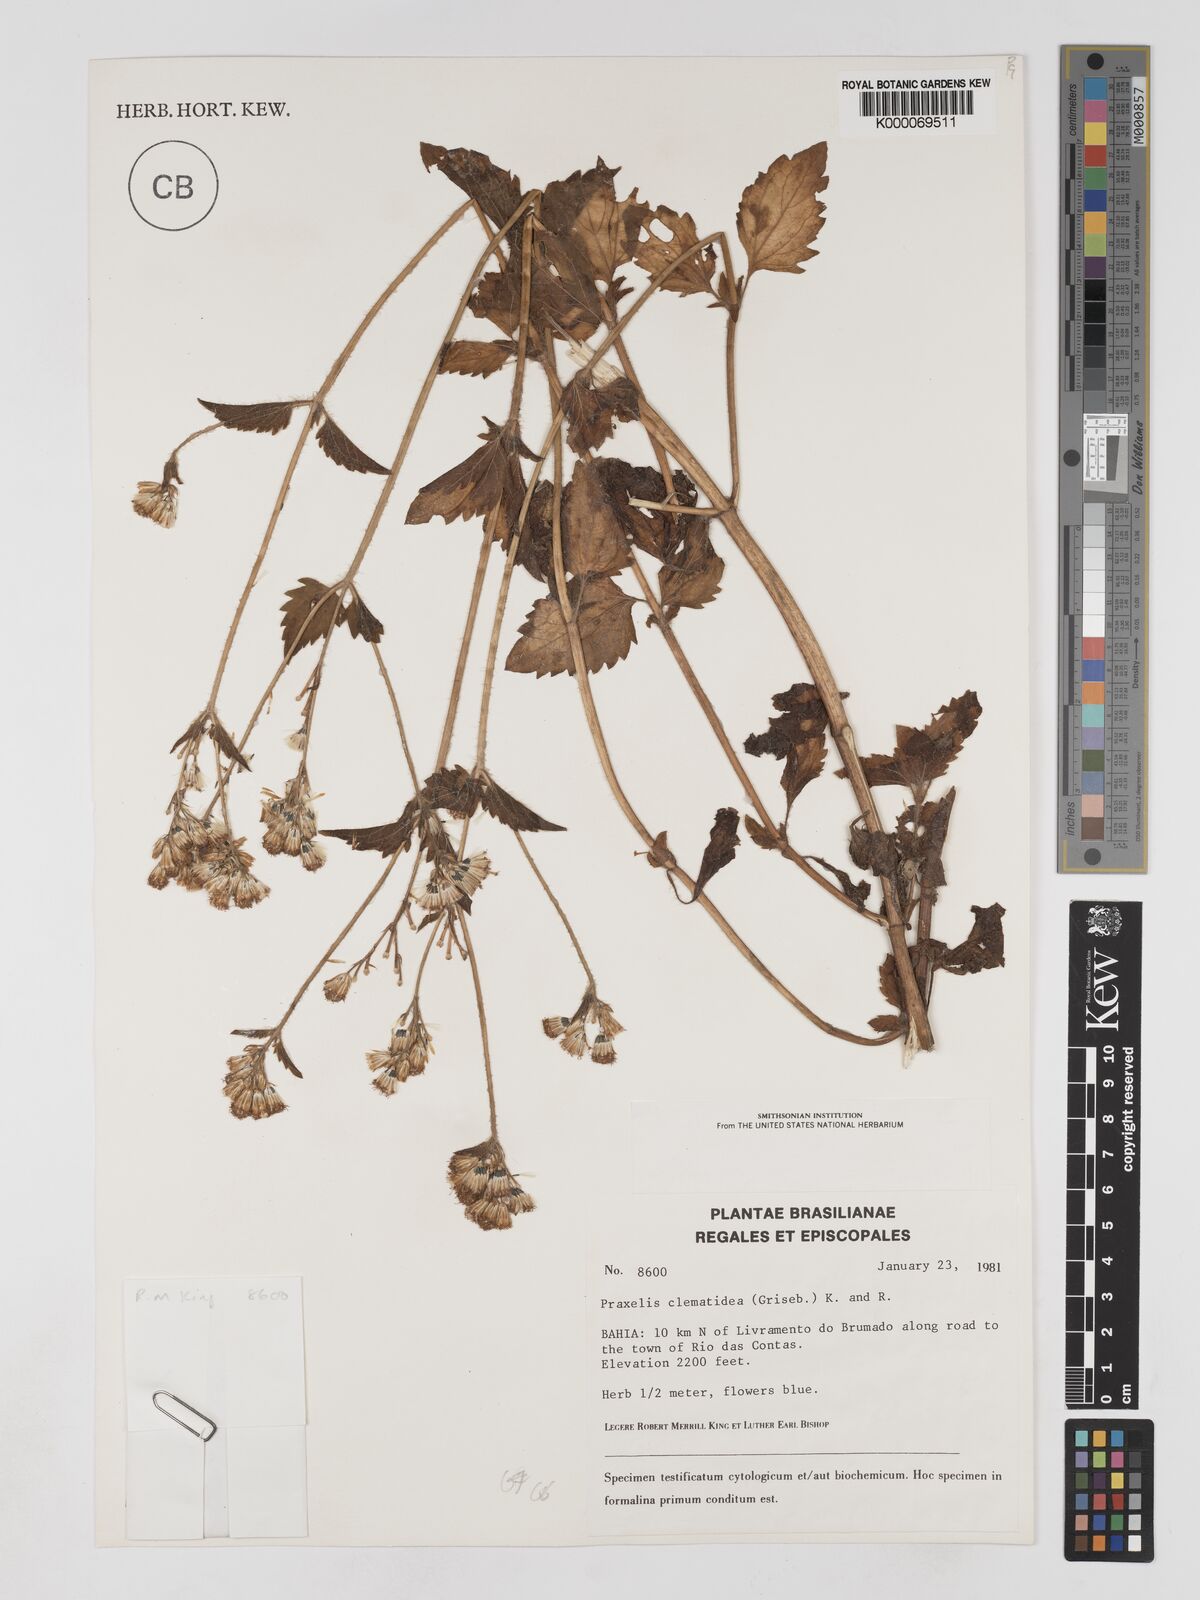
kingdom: Plantae
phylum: Tracheophyta
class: Magnoliopsida
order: Asterales
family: Asteraceae
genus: Praxelis
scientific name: Praxelis clematidea
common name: Praxelis
